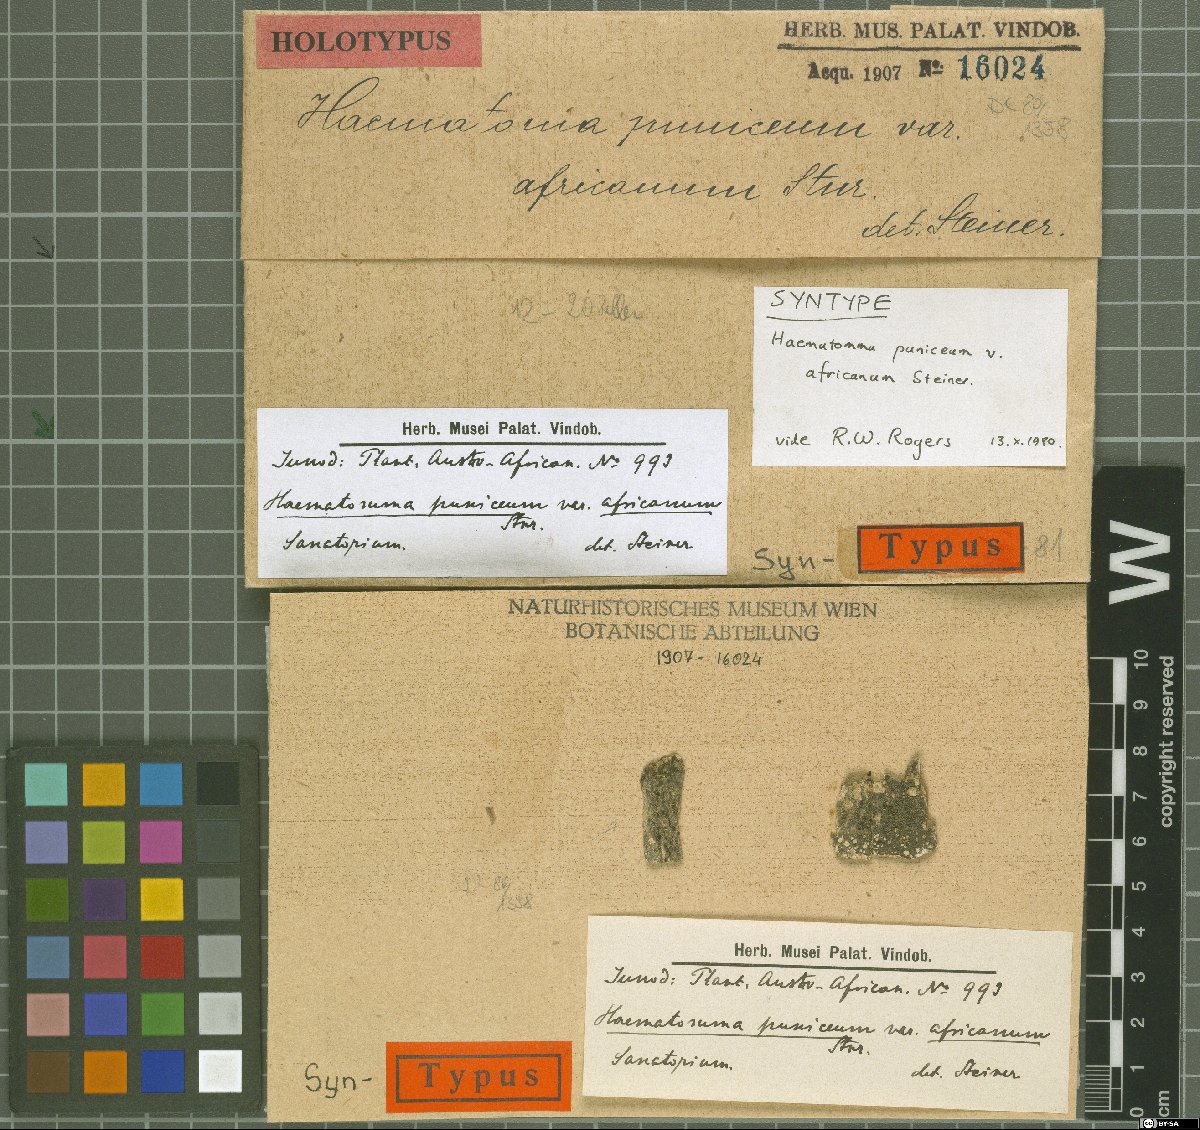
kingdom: Fungi
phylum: Ascomycota
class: Lecanoromycetes
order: Lecanorales
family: Haematommataceae
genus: Haematomma
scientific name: Haematomma africanum
